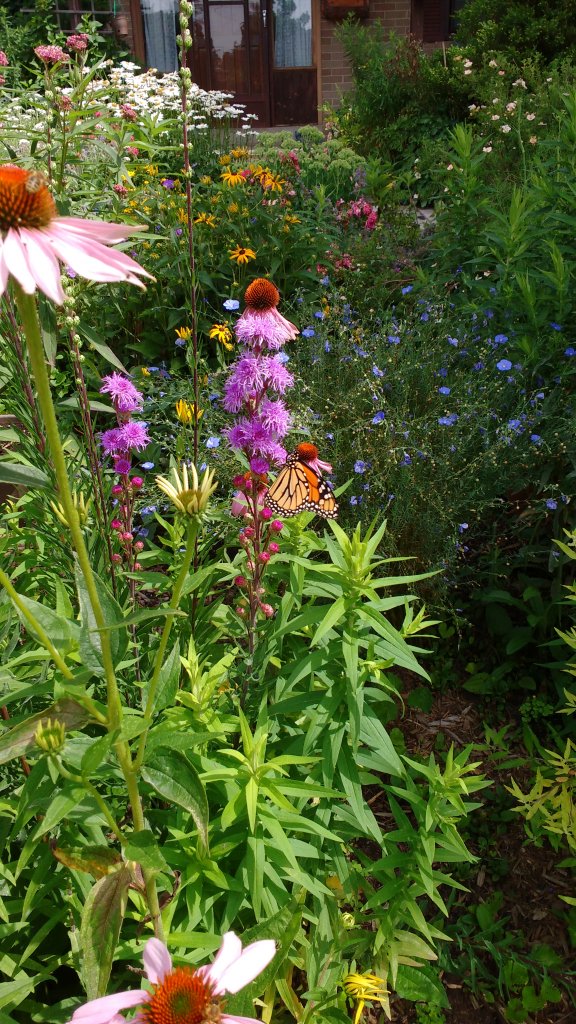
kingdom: Animalia
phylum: Arthropoda
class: Insecta
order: Lepidoptera
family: Nymphalidae
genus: Danaus
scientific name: Danaus plexippus
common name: Monarch
